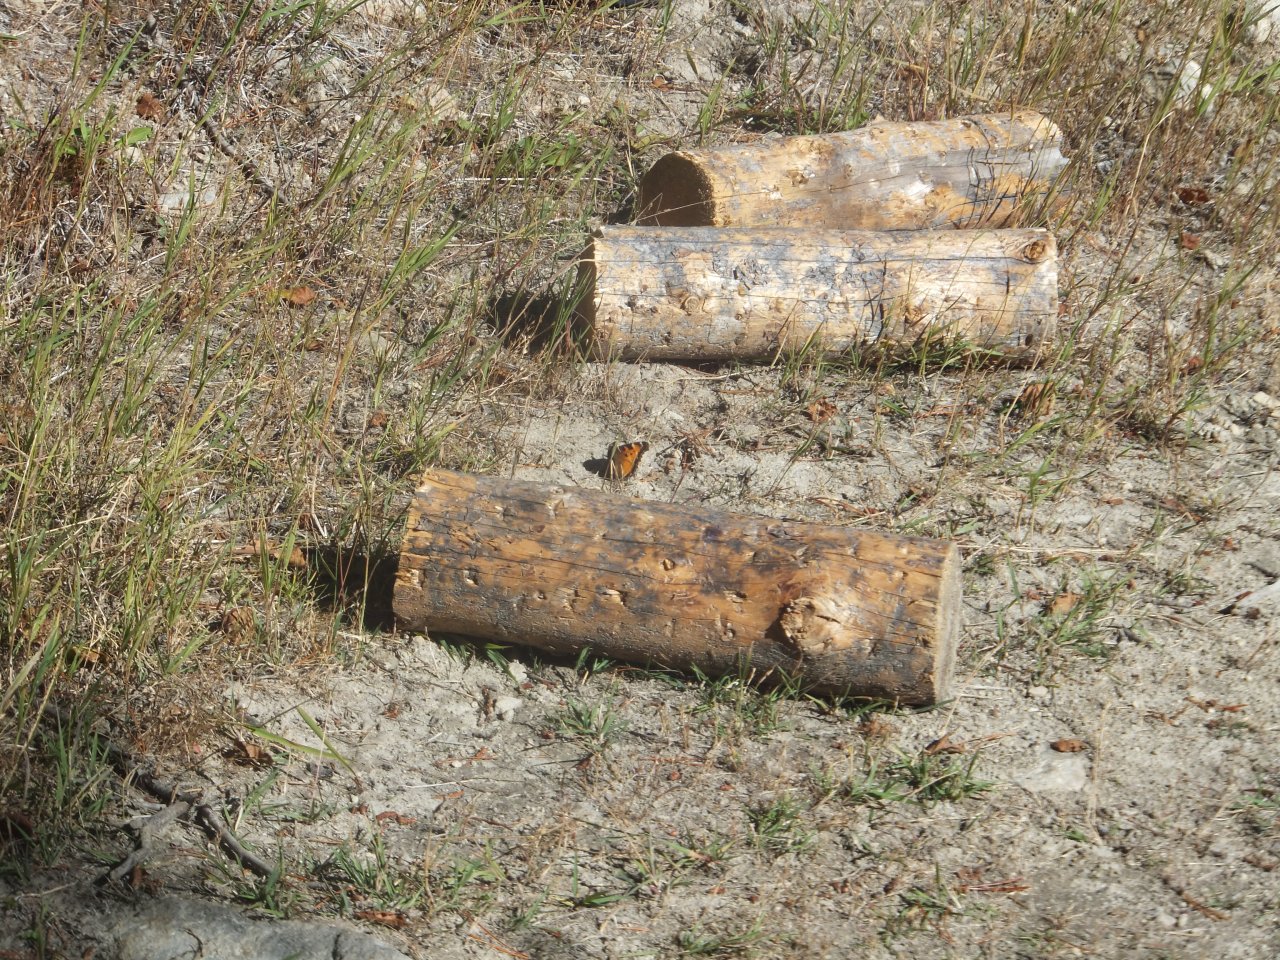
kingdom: Animalia
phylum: Arthropoda
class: Insecta
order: Lepidoptera
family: Nymphalidae
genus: Nymphalis
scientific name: Nymphalis californica
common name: California Tortoiseshell
